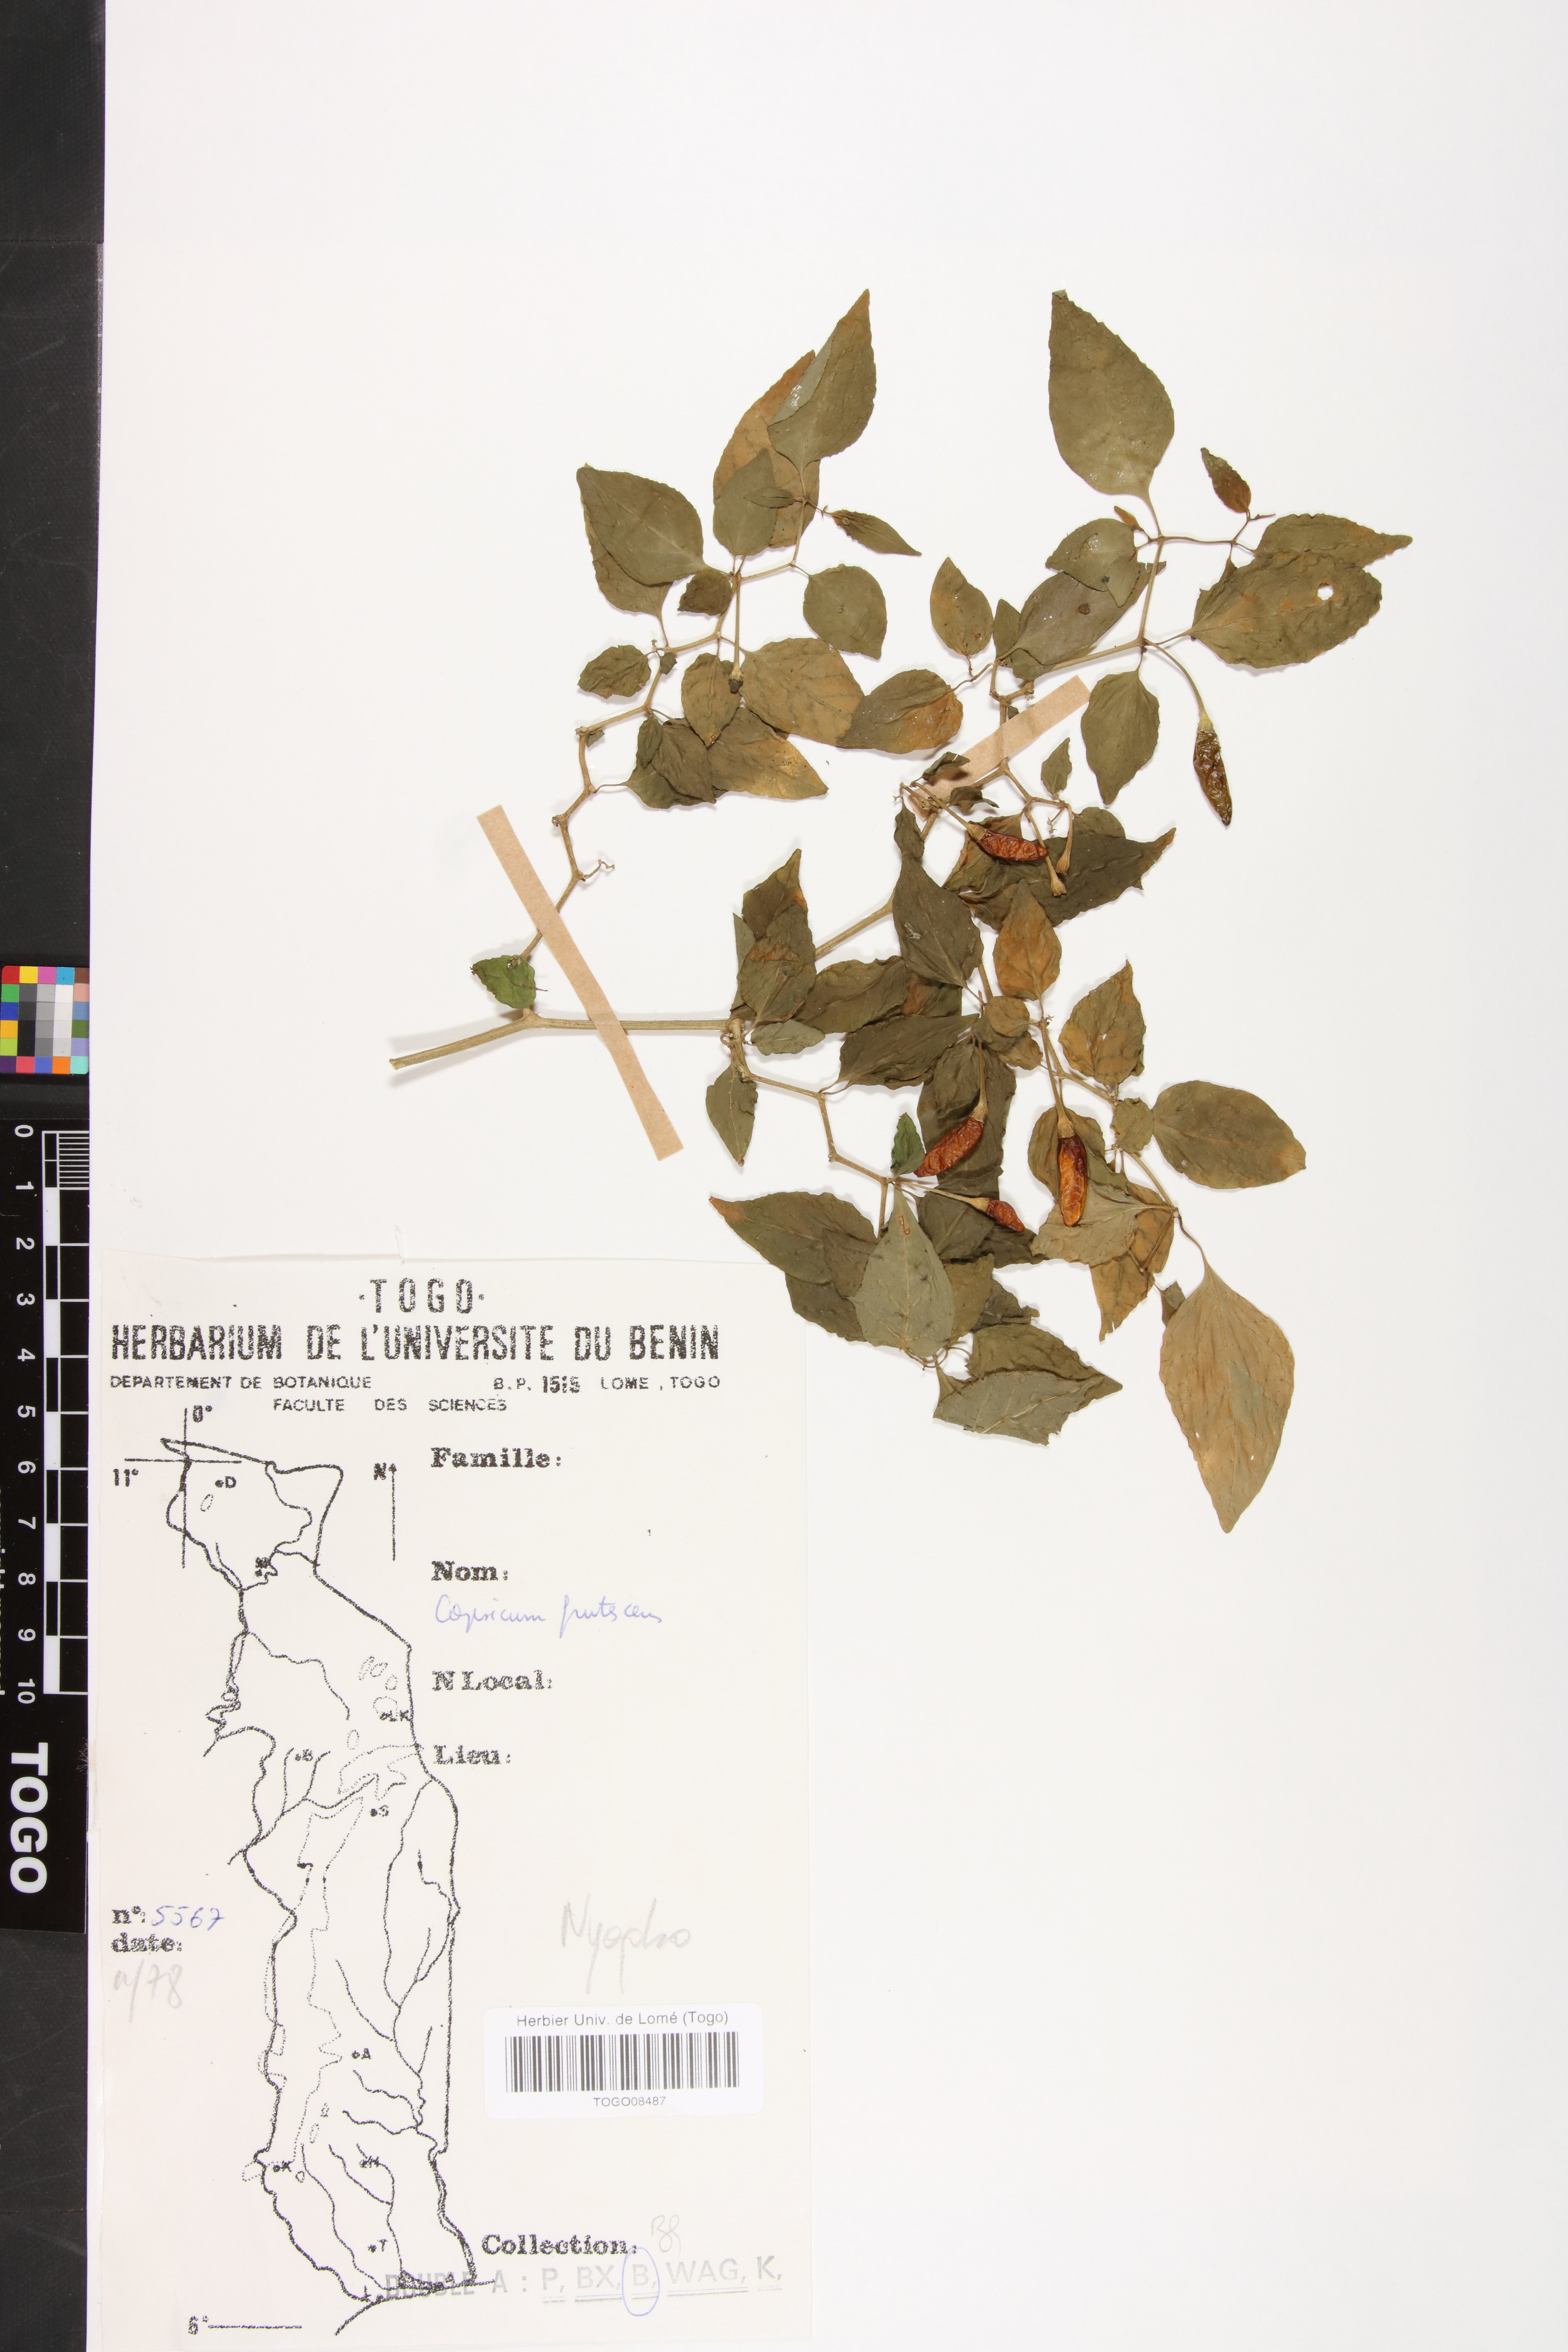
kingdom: Plantae
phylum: Tracheophyta
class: Magnoliopsida
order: Solanales
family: Solanaceae
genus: Capsicum
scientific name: Capsicum frutescens
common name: Bird pepper
